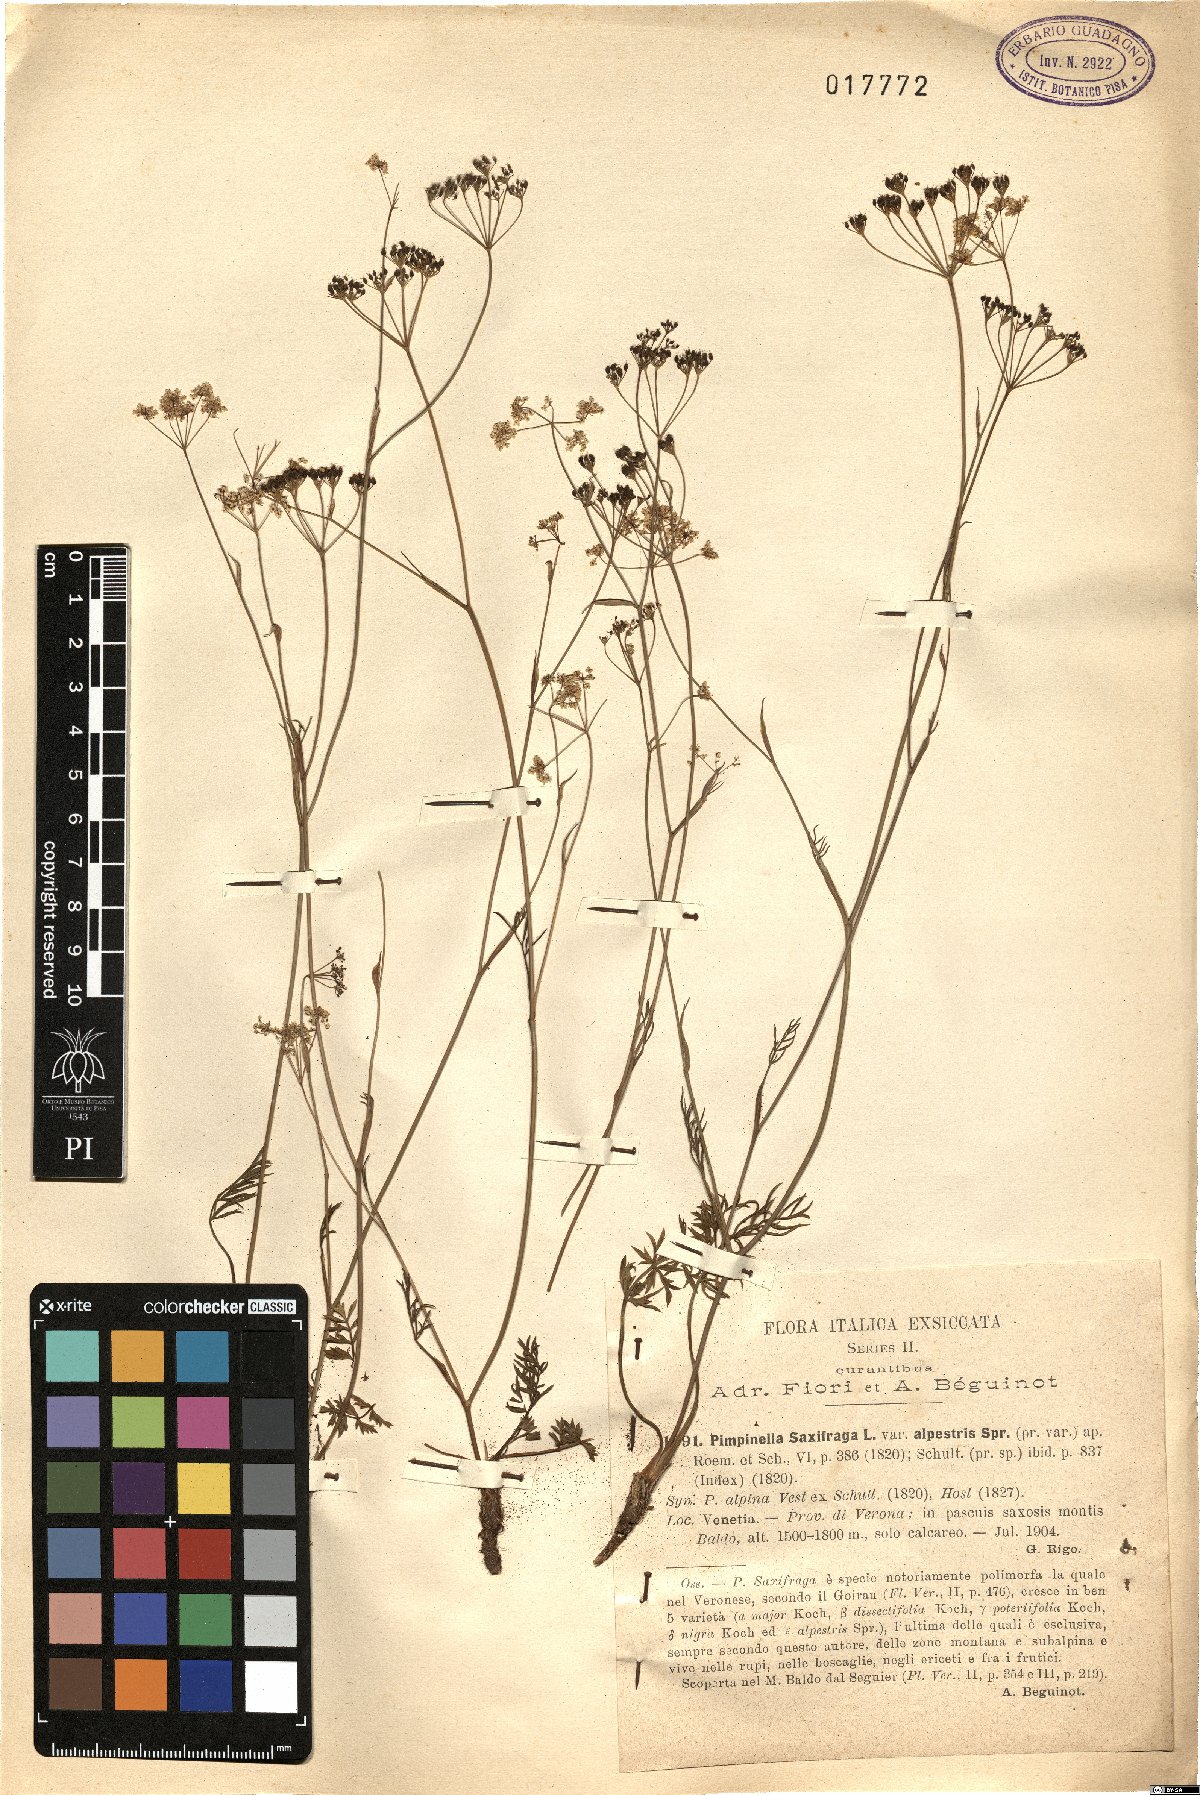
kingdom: Plantae
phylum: Tracheophyta
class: Magnoliopsida
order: Apiales
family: Apiaceae
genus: Pimpinella
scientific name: Pimpinella alpina
